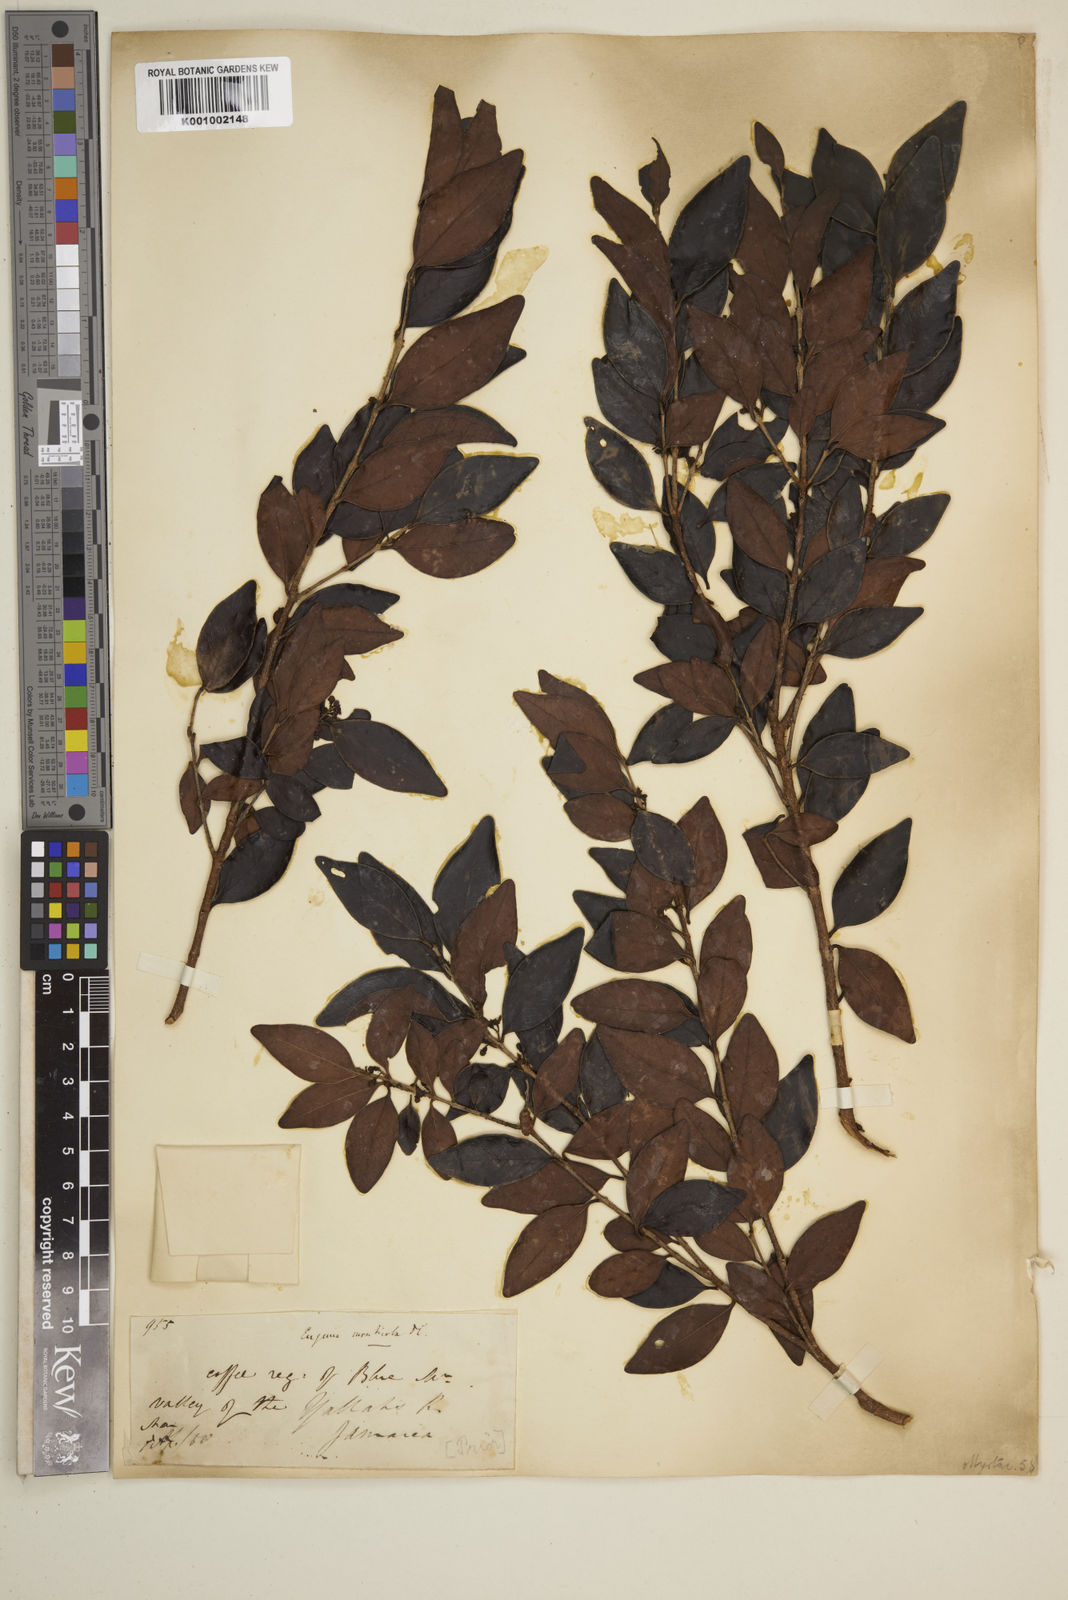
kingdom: Plantae
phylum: Tracheophyta
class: Magnoliopsida
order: Myrtales
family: Myrtaceae
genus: Eugenia
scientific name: Eugenia monticola
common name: Birds berry
